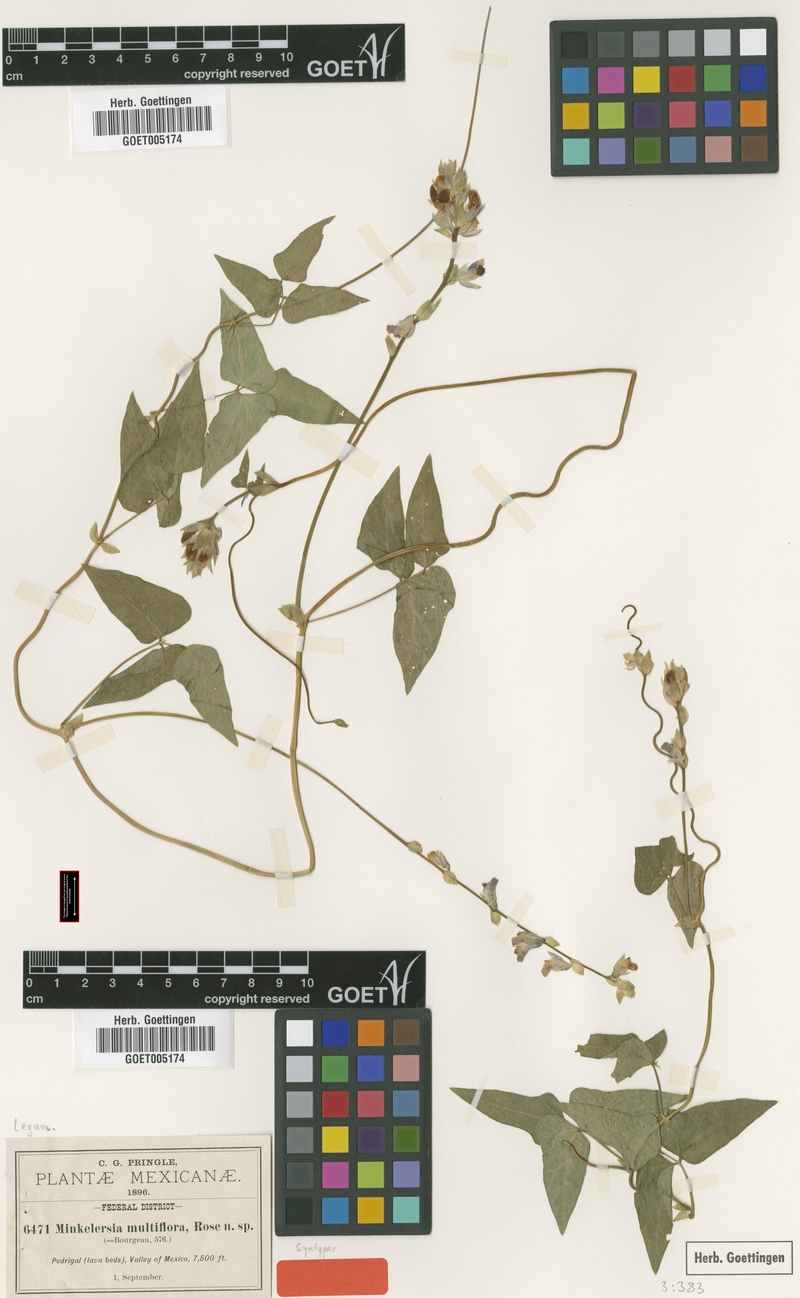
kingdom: Plantae
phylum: Tracheophyta
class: Magnoliopsida
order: Fabales
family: Fabaceae
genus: Phaseolus
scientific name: Phaseolus vulcanicus
